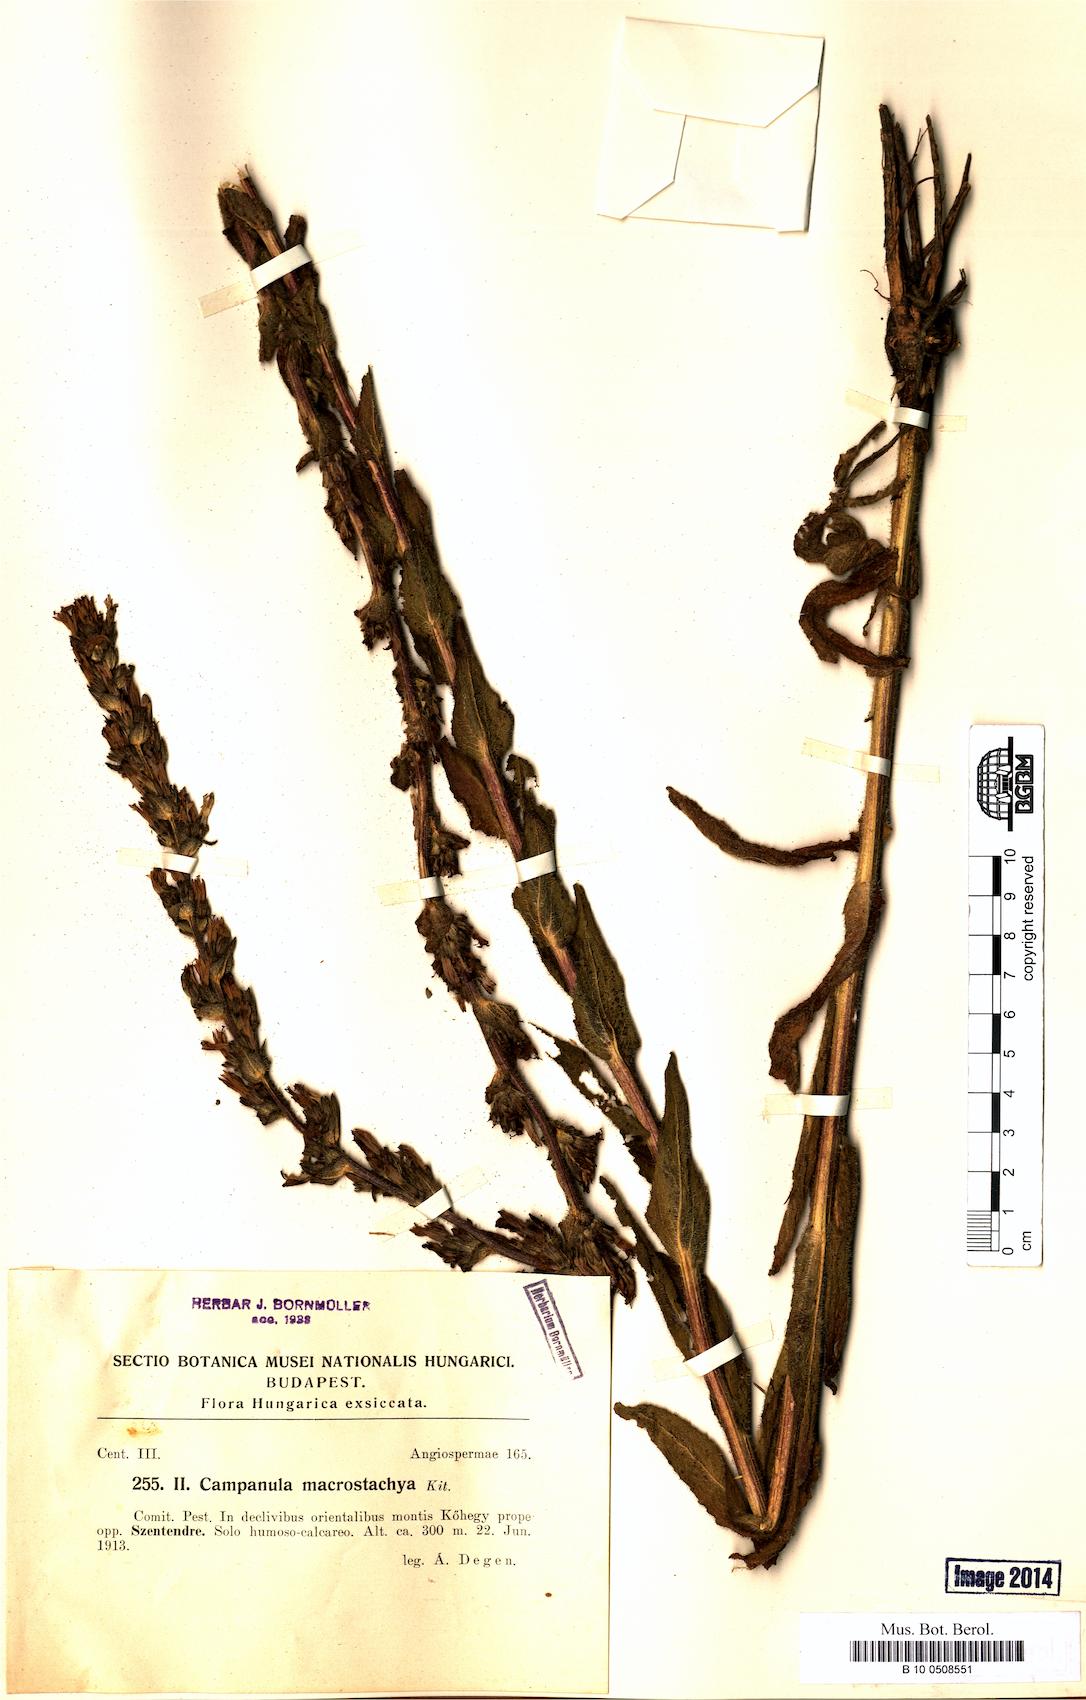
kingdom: Plantae
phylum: Tracheophyta
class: Magnoliopsida
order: Asterales
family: Campanulaceae
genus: Campanula
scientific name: Campanula macrostachya
